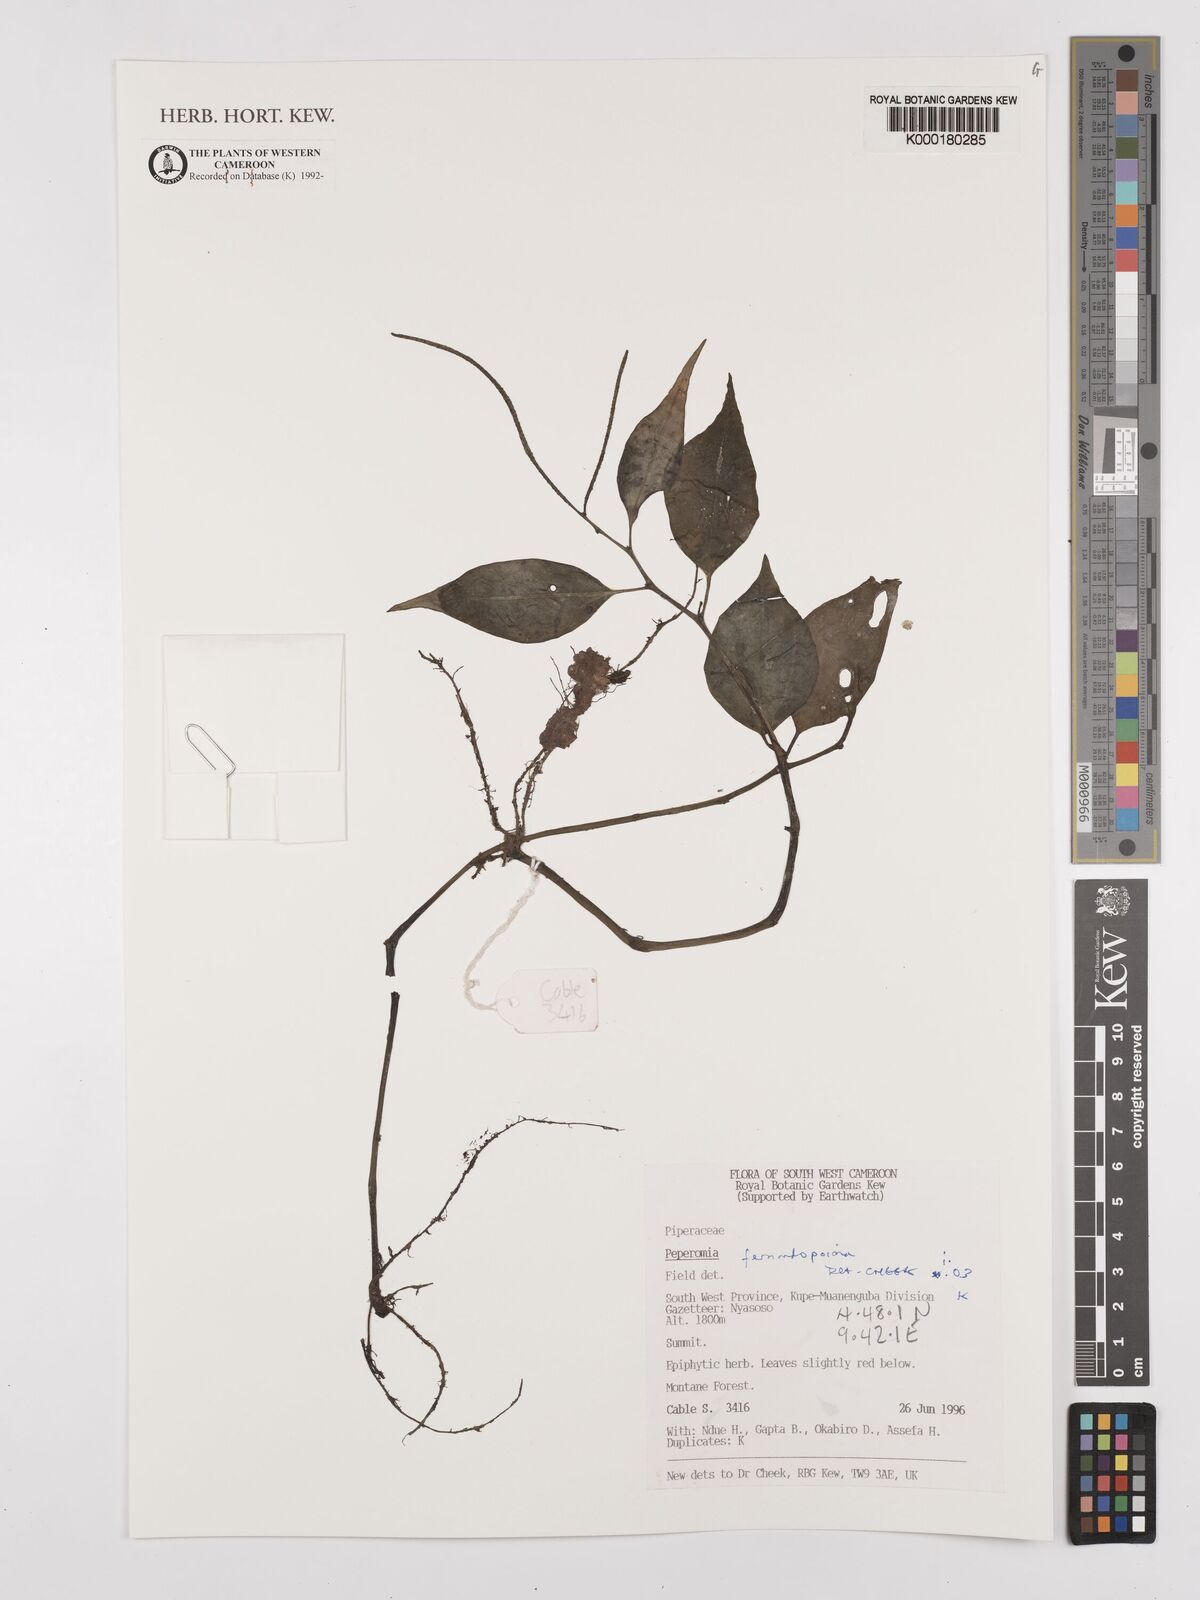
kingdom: Plantae
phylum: Tracheophyta
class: Magnoliopsida
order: Piperales
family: Piperaceae
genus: Peperomia
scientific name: Peperomia fernandopoiana
